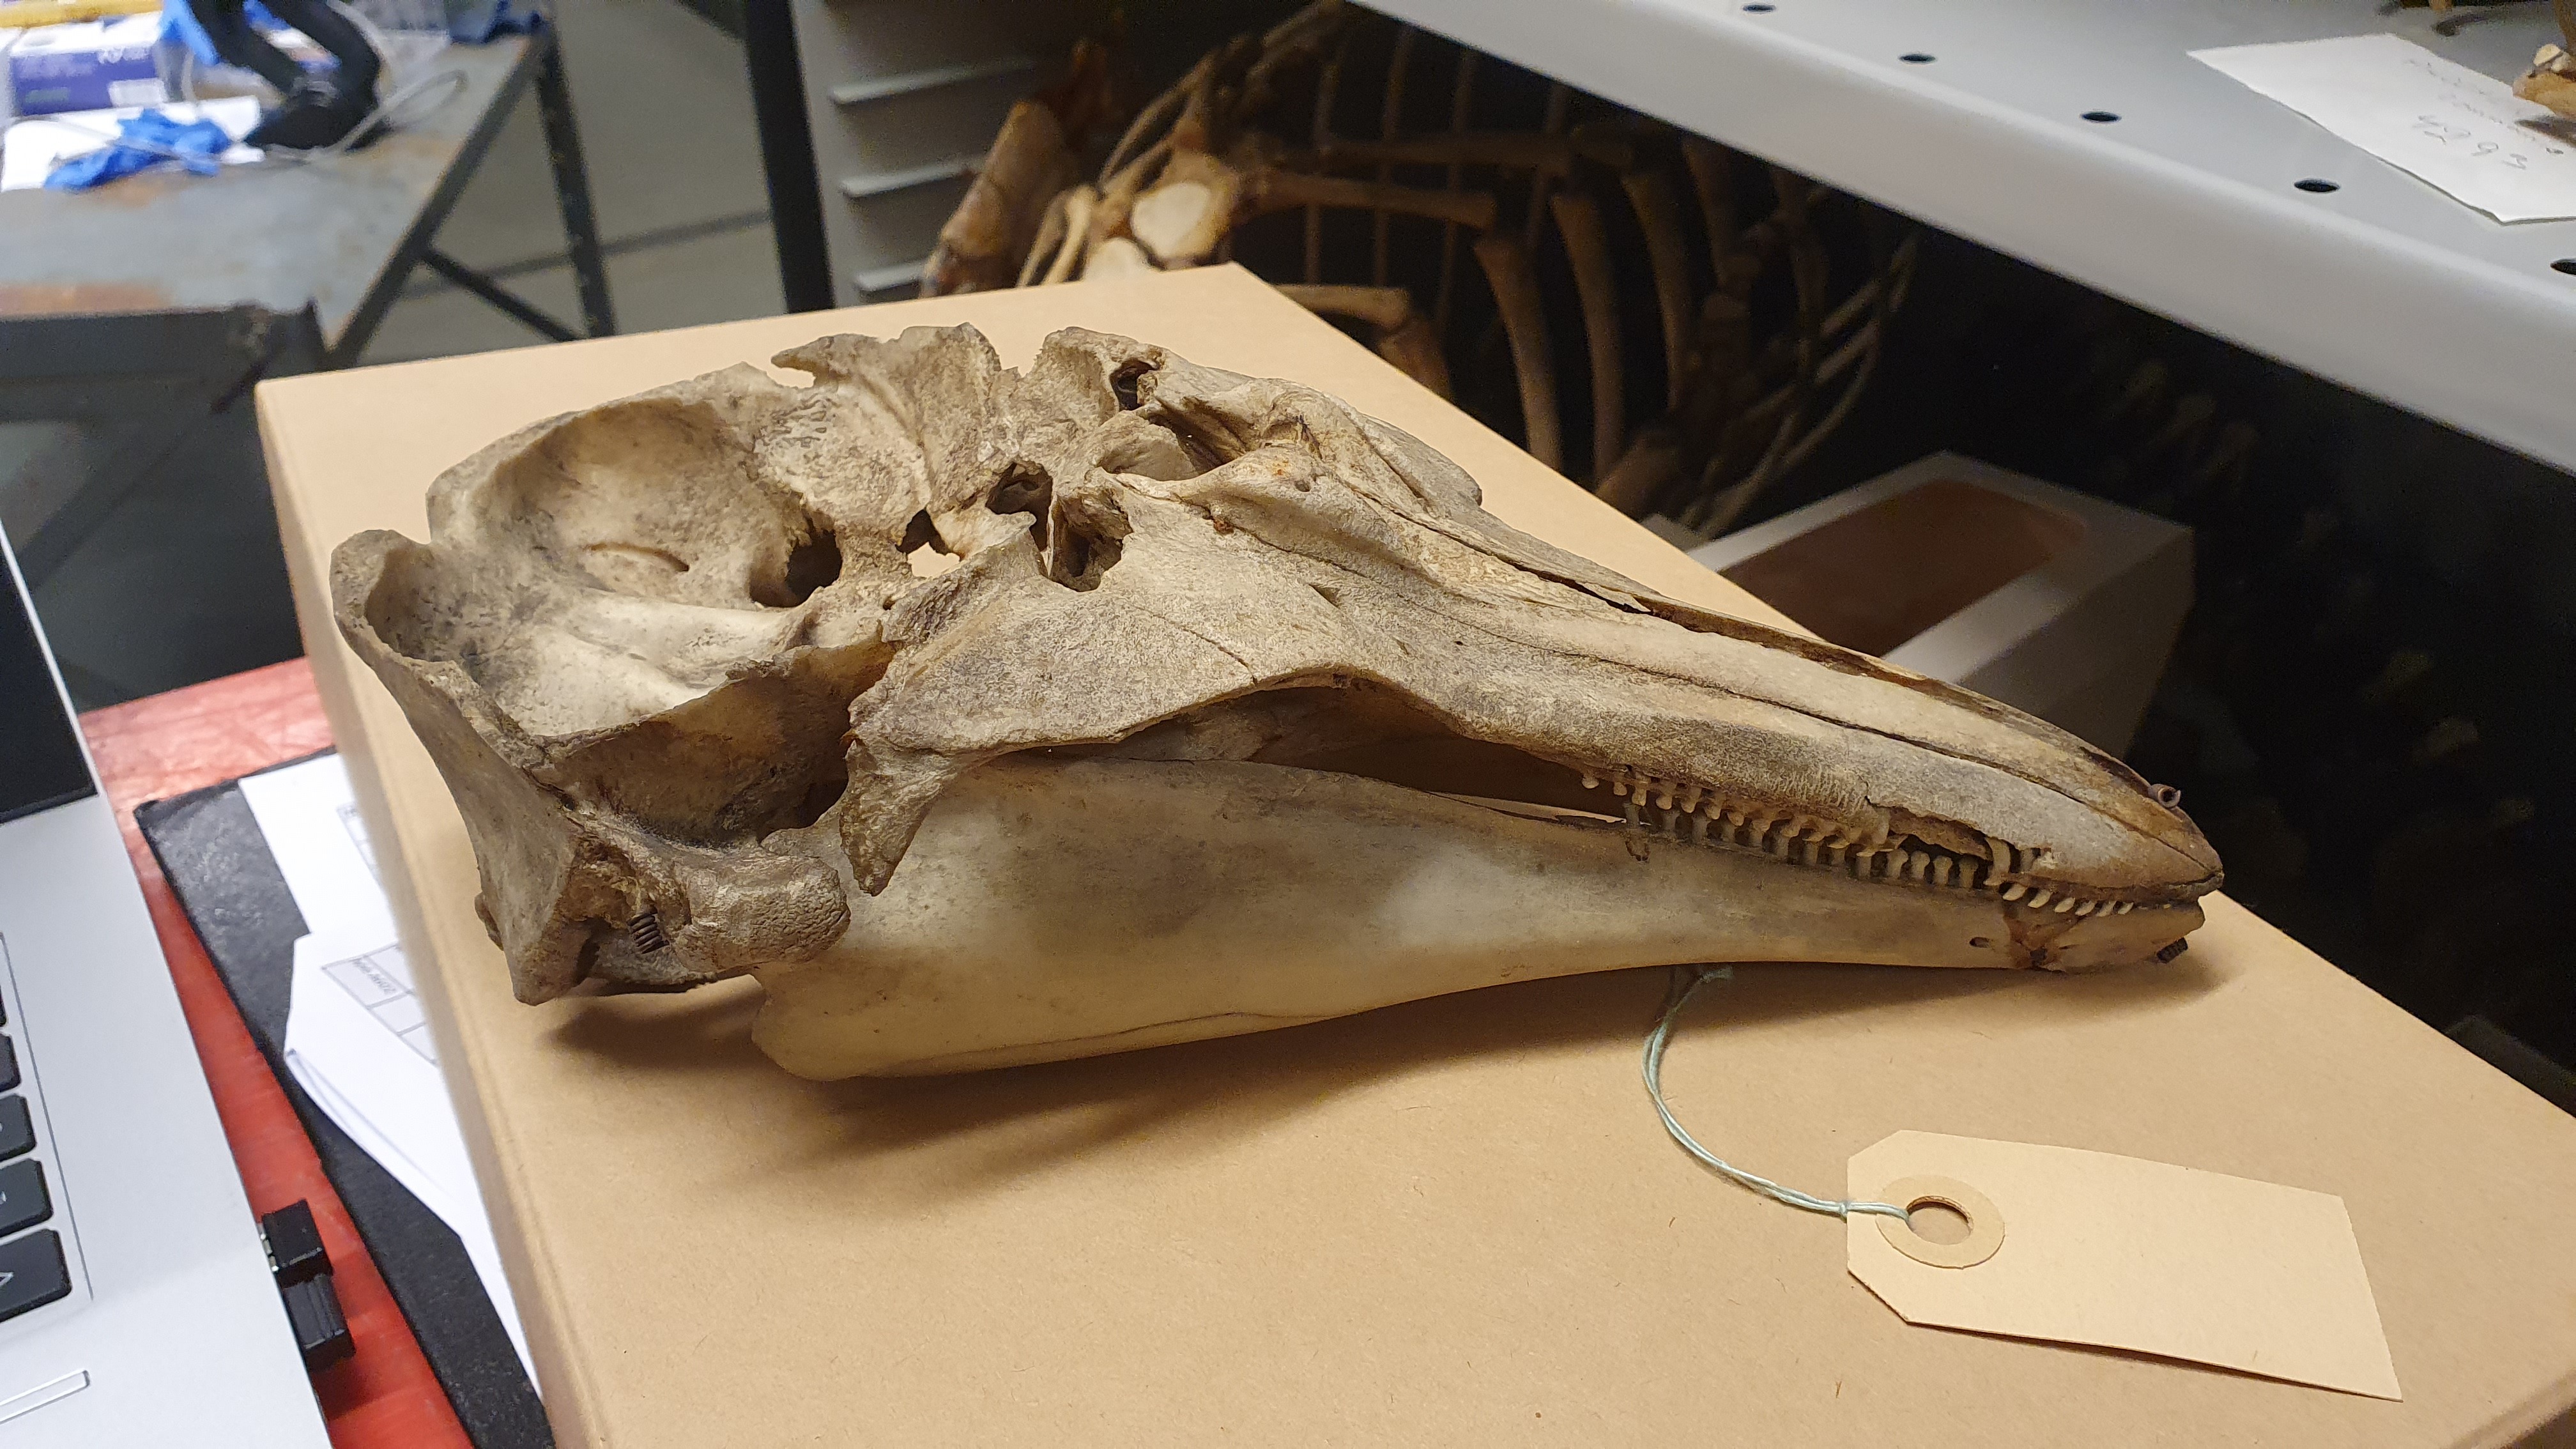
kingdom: Animalia
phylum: Chordata
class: Mammalia
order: Cetacea
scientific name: Cetacea
